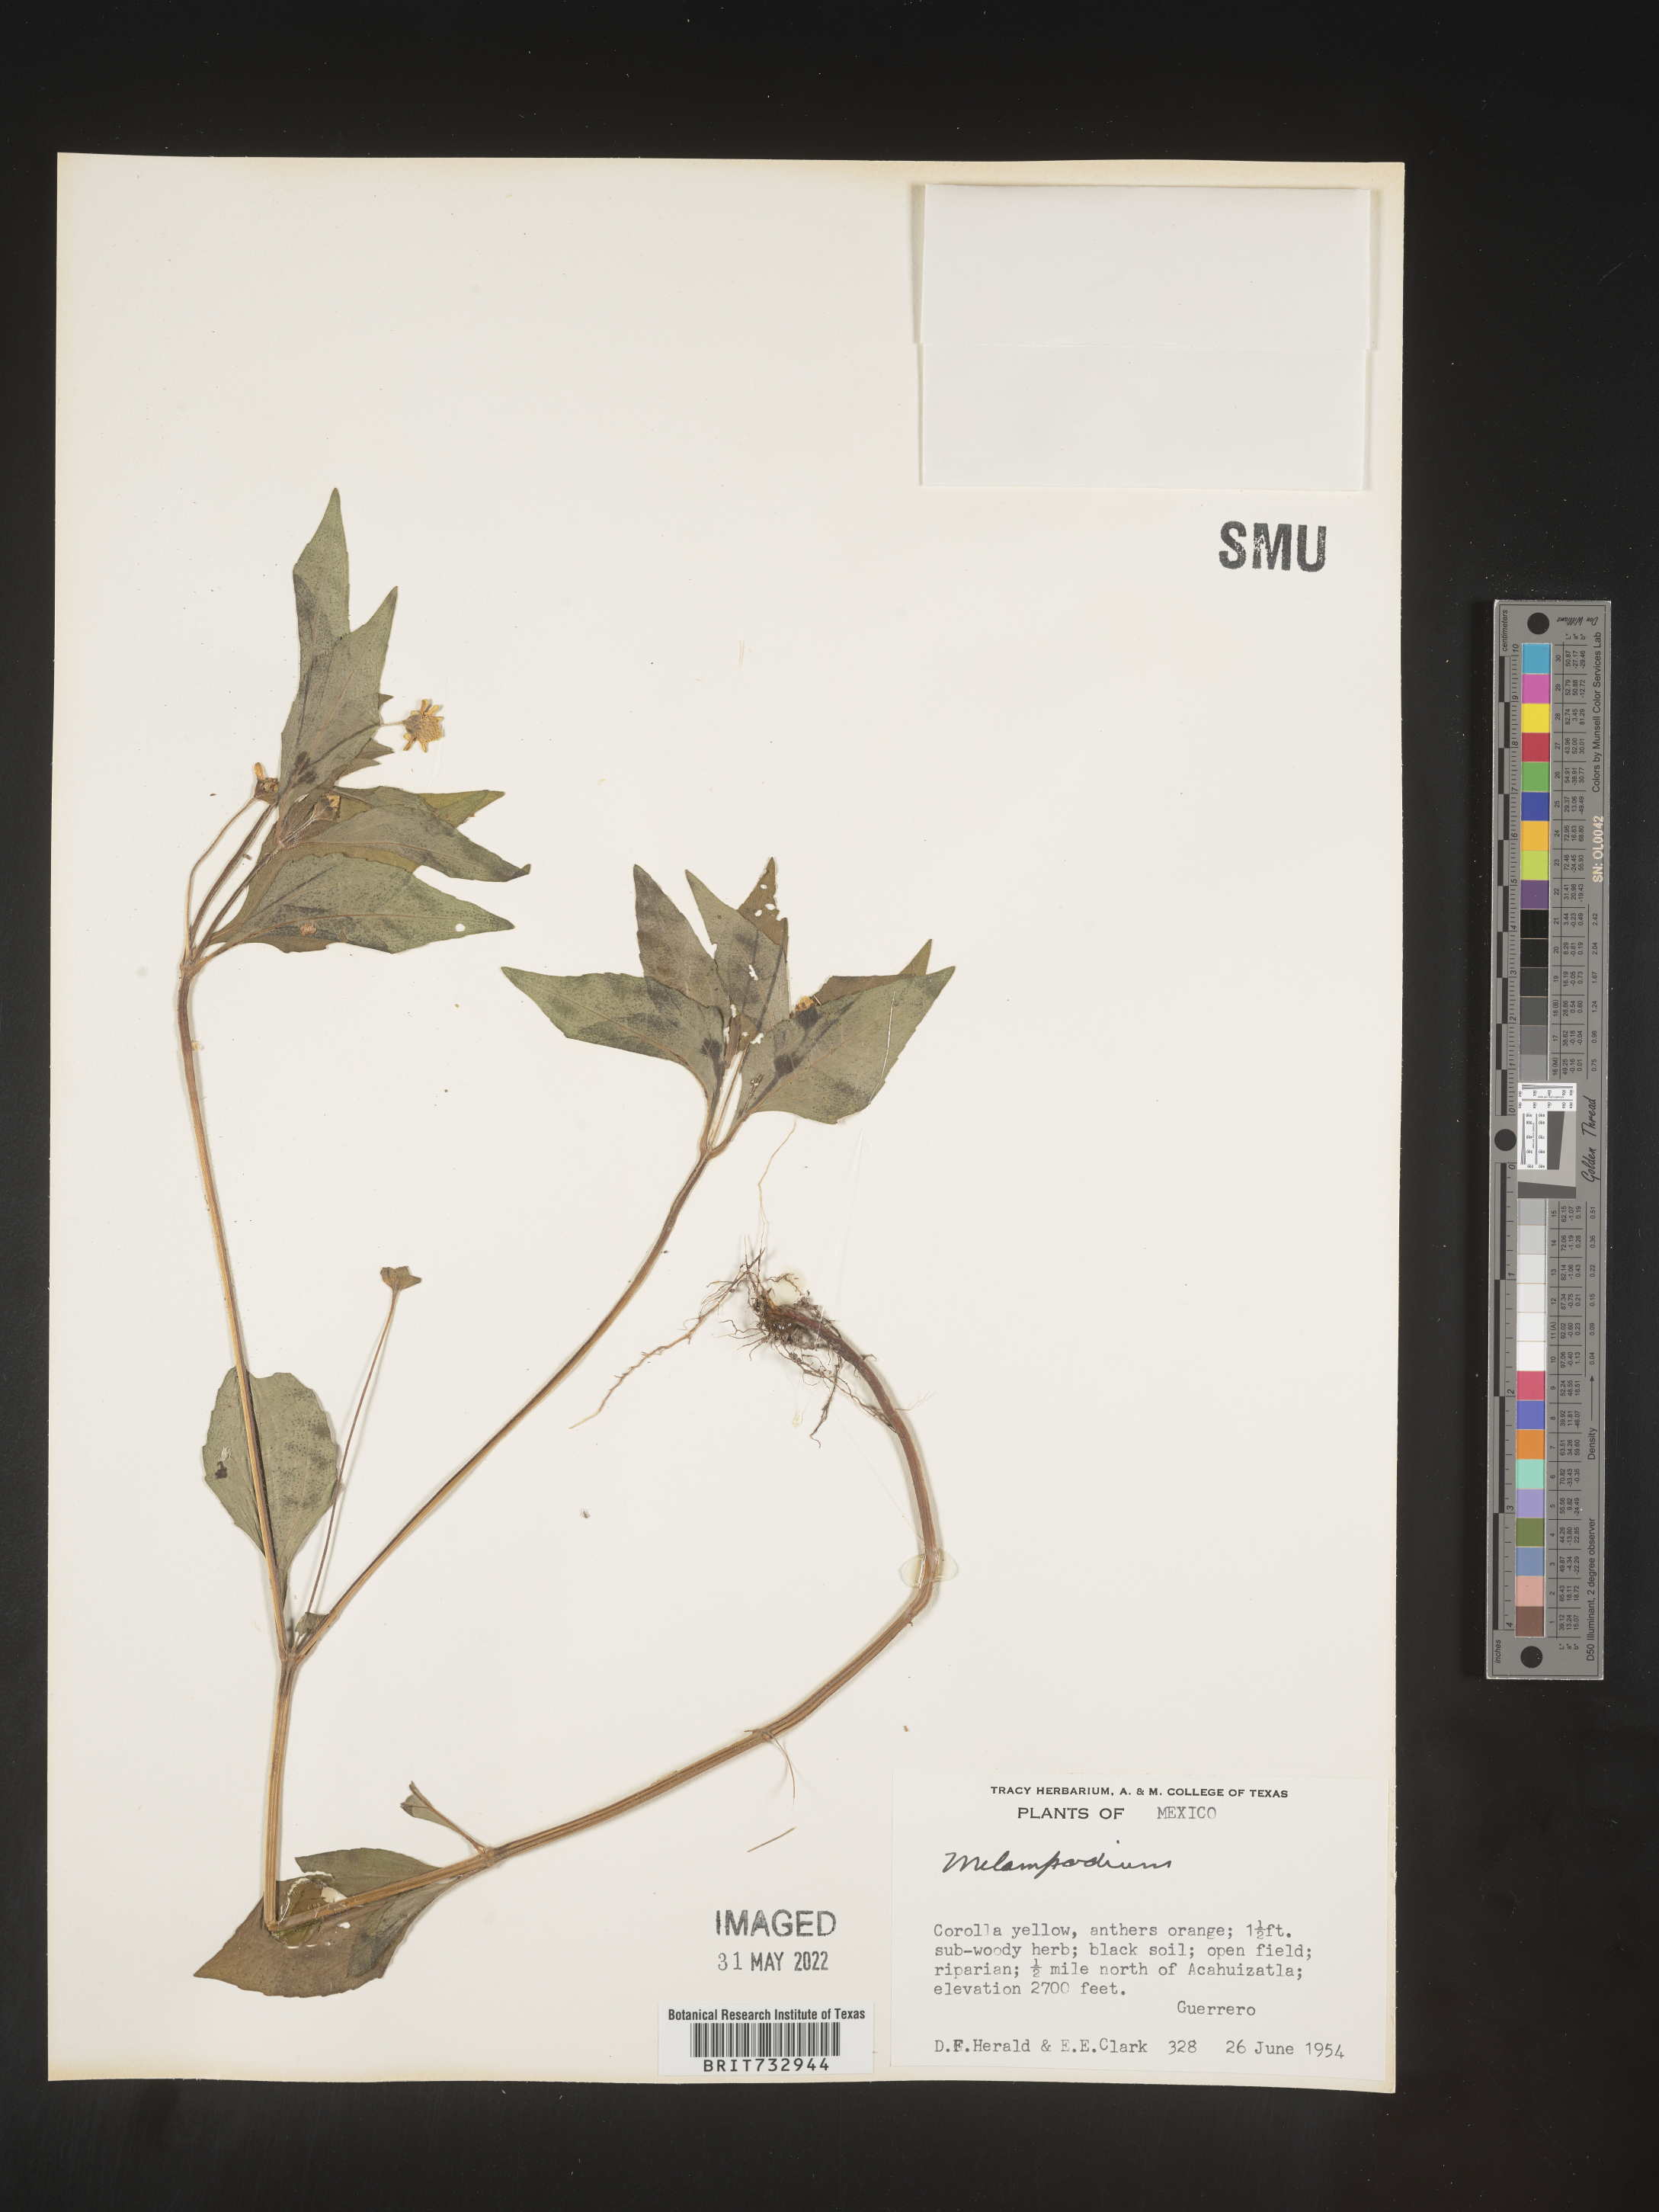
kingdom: Plantae
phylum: Tracheophyta
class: Magnoliopsida
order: Asterales
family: Asteraceae
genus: Melampodium
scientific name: Melampodium
